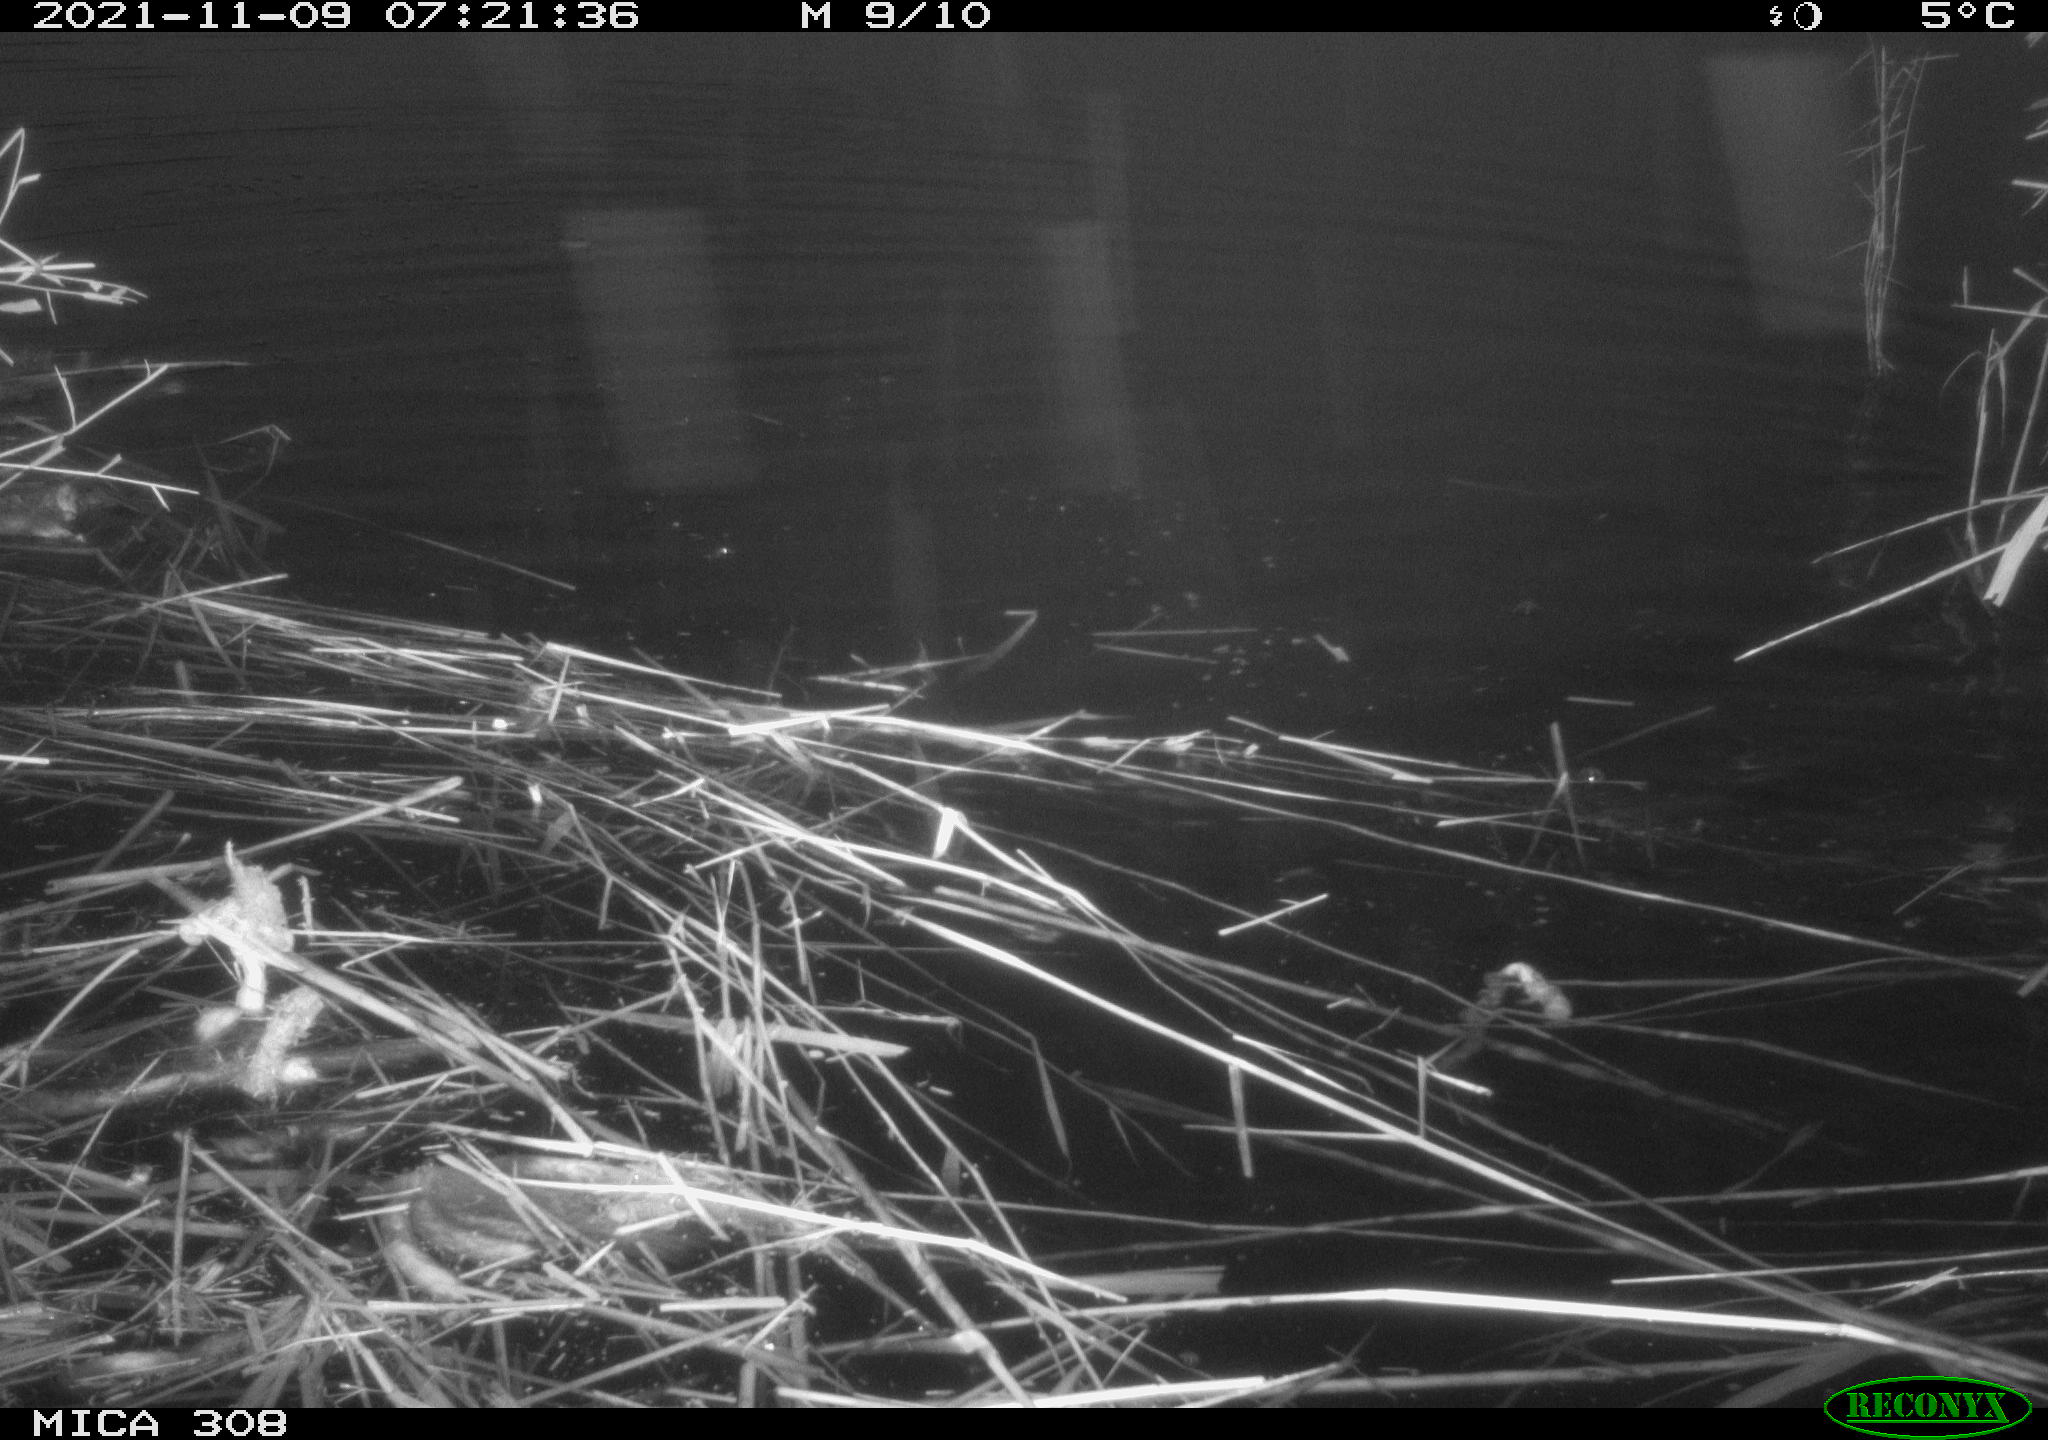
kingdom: Animalia
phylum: Chordata
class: Aves
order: Gruiformes
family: Rallidae
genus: Fulica
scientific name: Fulica atra
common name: Eurasian coot
